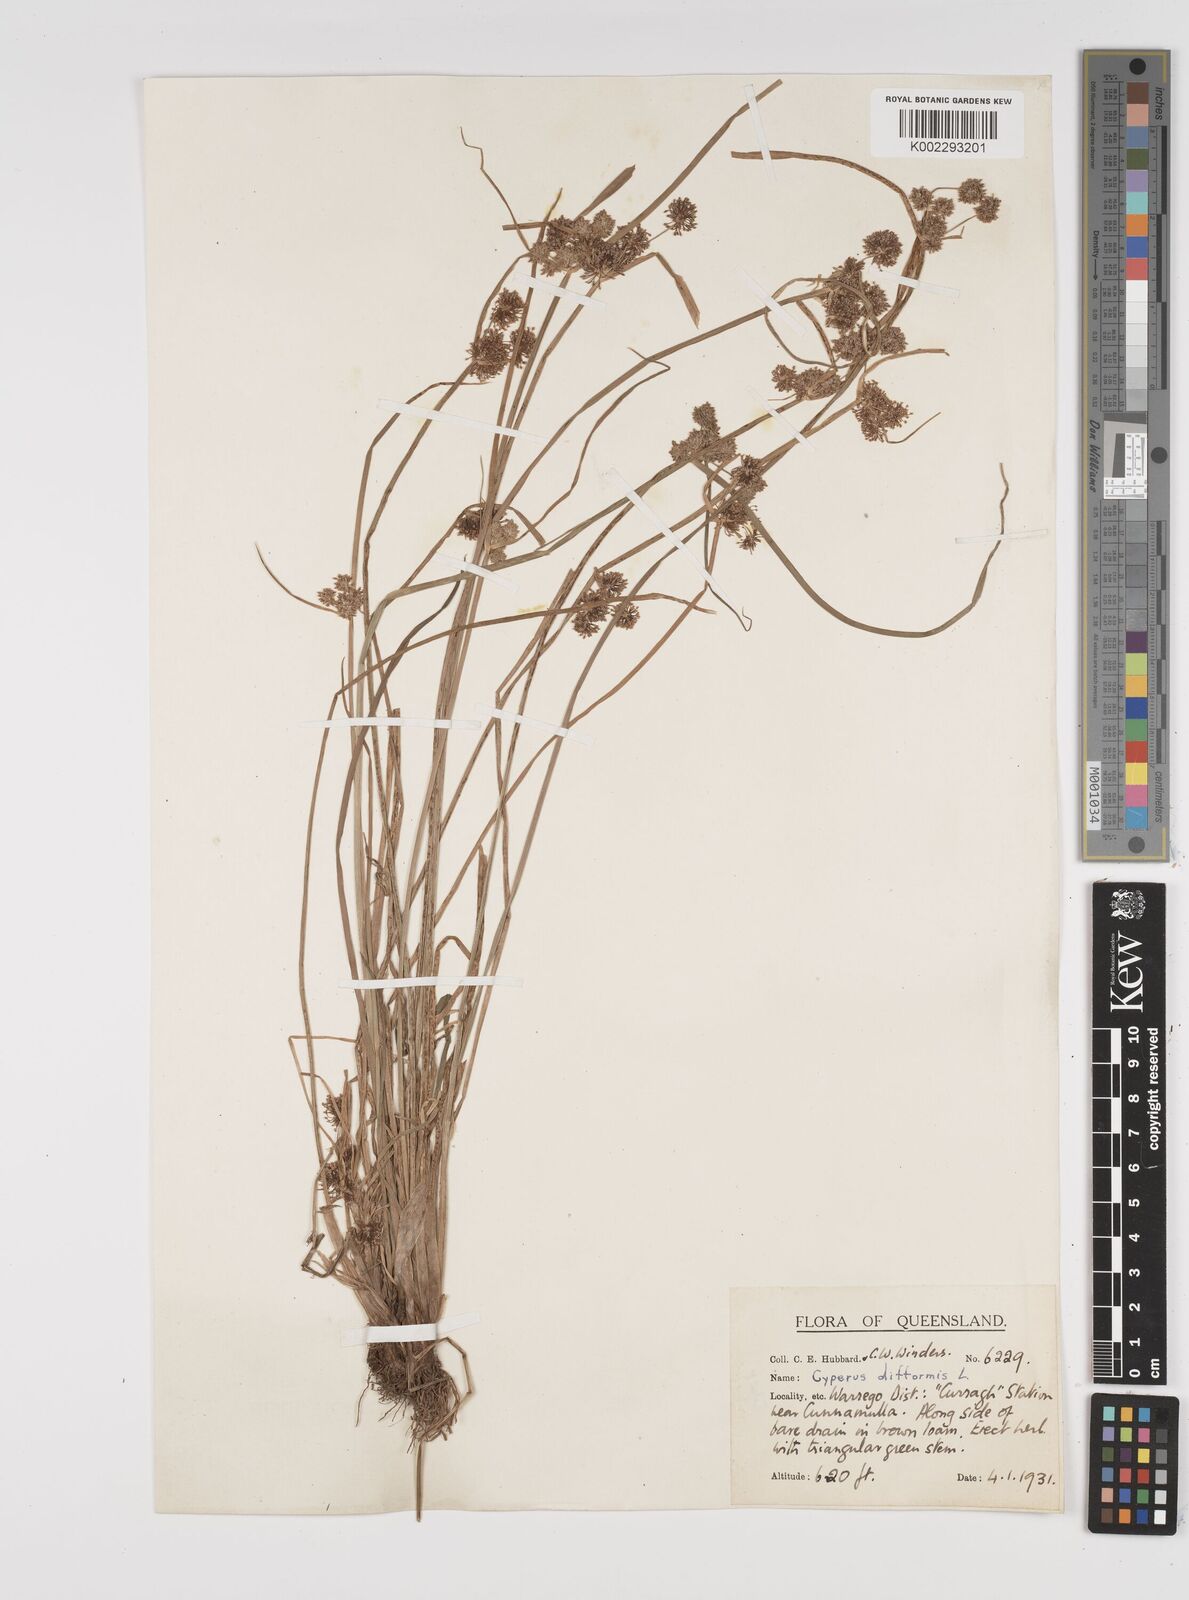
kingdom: Plantae
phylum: Tracheophyta
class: Liliopsida
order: Poales
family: Cyperaceae
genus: Cyperus
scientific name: Cyperus difformis
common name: Variable flatsedge
